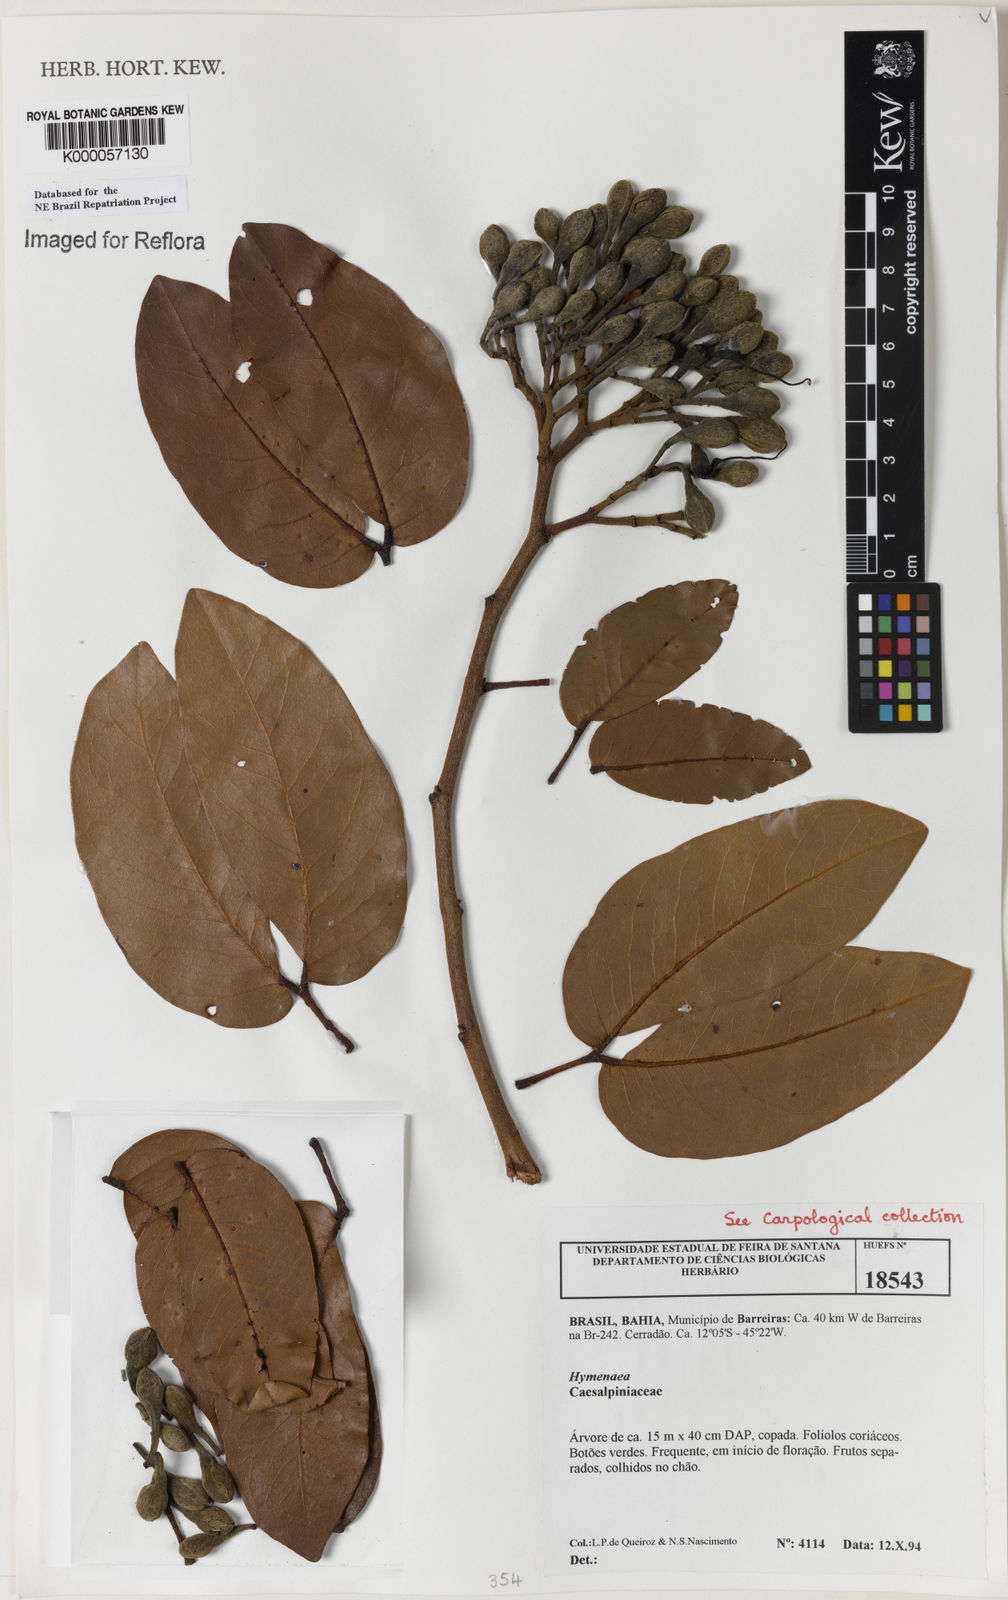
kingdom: Plantae
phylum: Tracheophyta
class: Magnoliopsida
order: Fabales
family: Fabaceae
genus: Hymenaea
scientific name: Hymenaea longifolia
